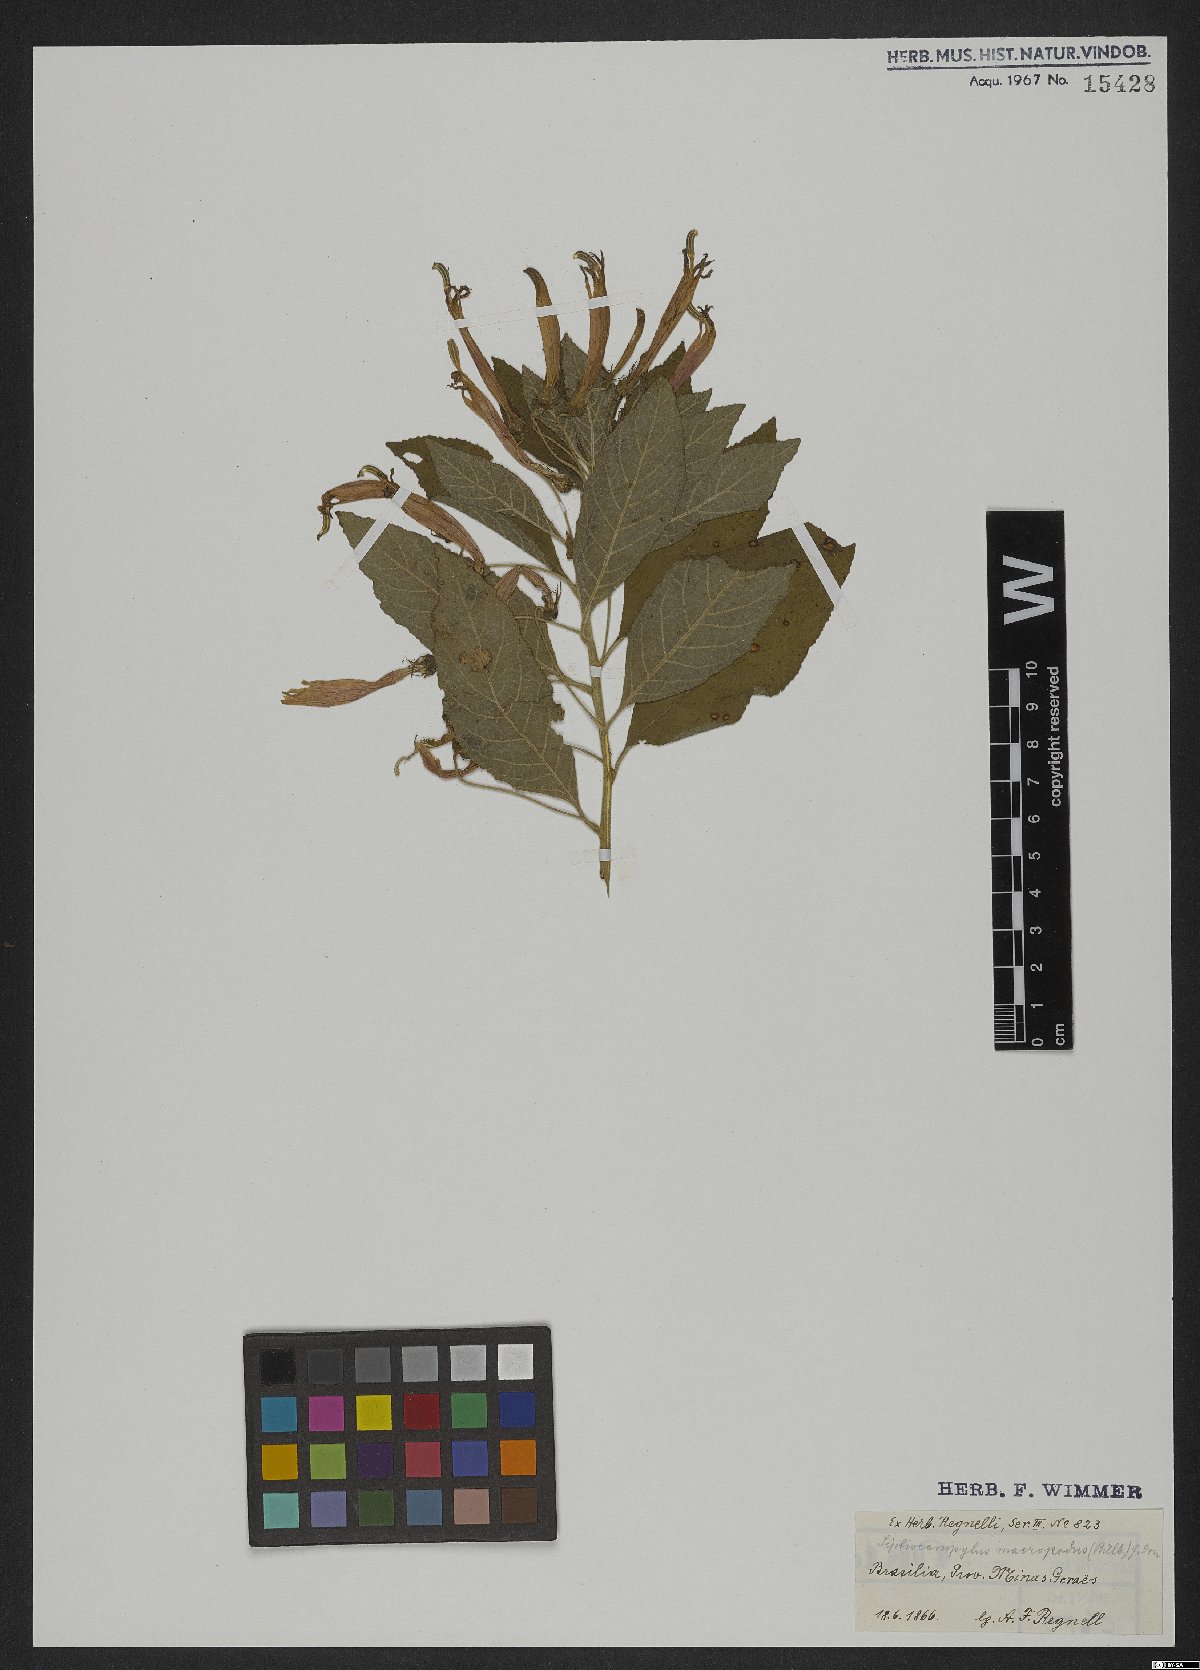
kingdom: Plantae
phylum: Tracheophyta
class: Magnoliopsida
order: Asterales
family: Campanulaceae
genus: Siphocampylus
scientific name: Siphocampylus macropodus
